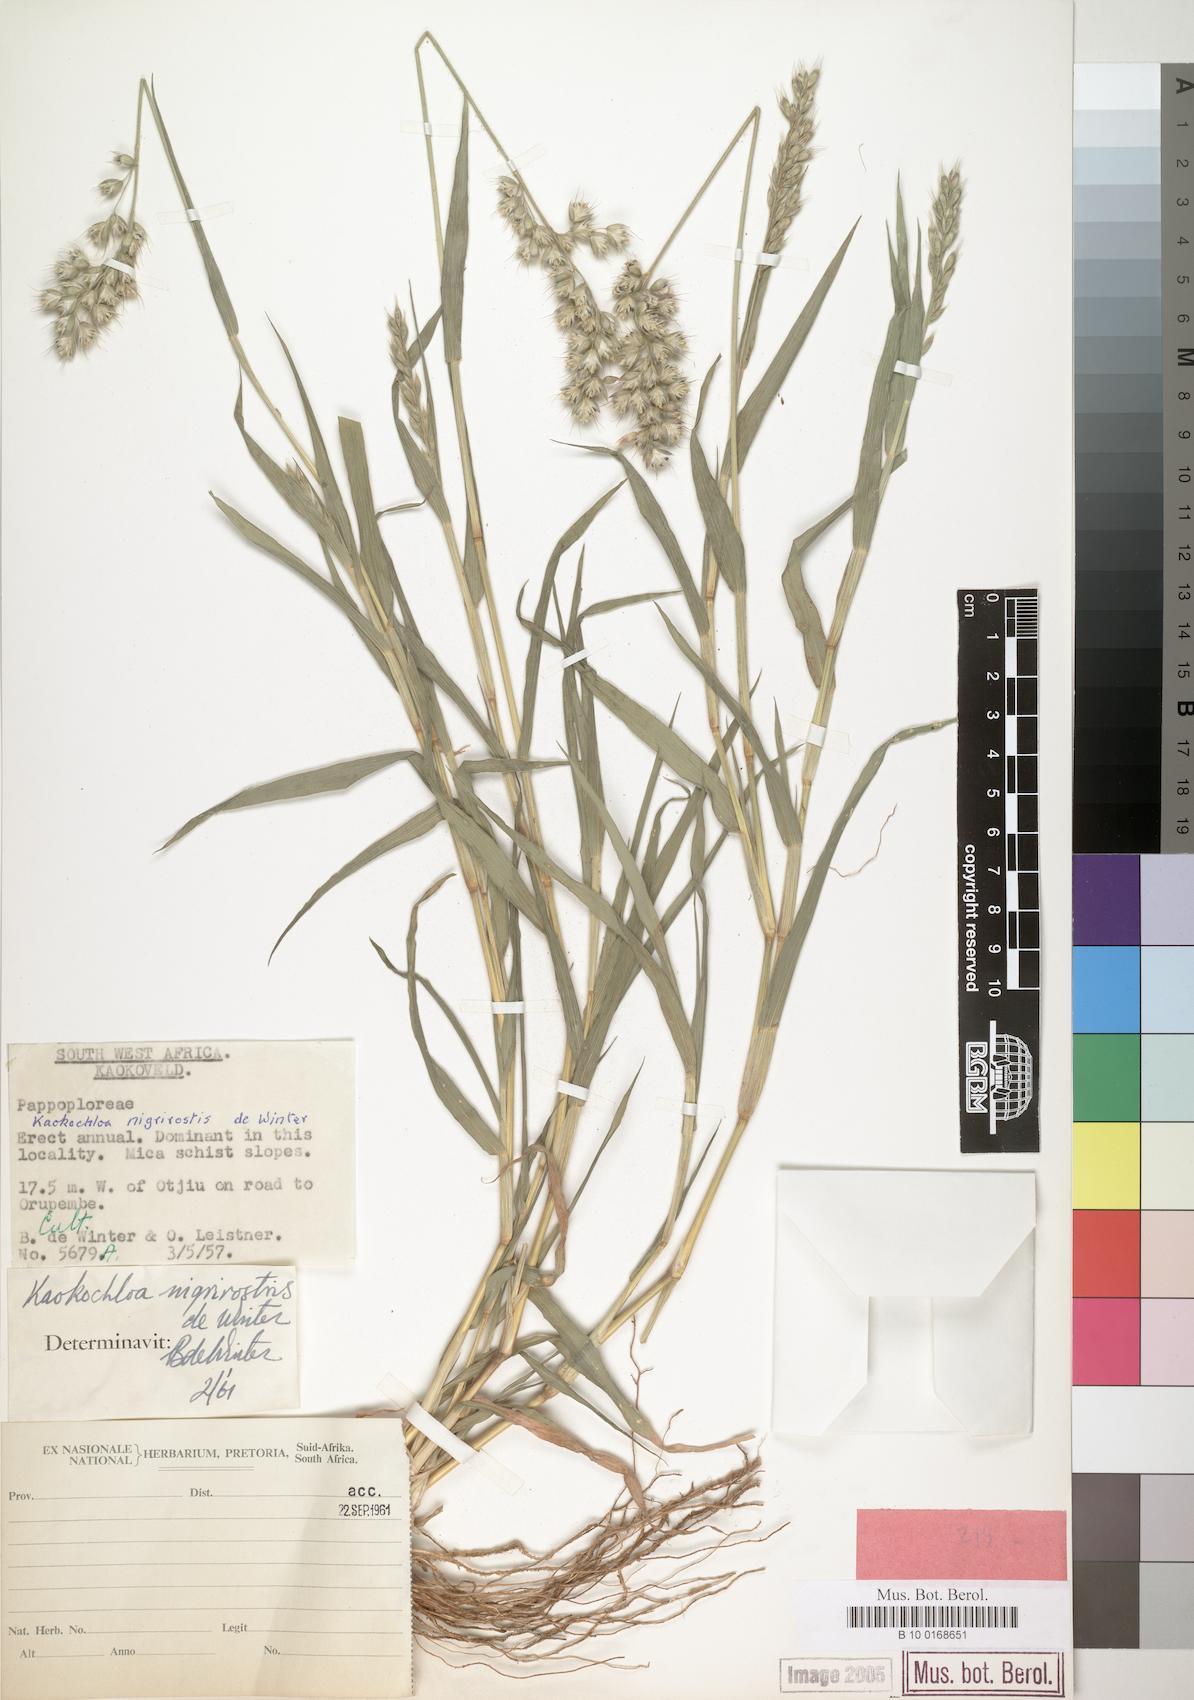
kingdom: Plantae
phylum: Tracheophyta
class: Liliopsida
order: Poales
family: Poaceae
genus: Kaokochloa
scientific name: Kaokochloa nigrirostris
